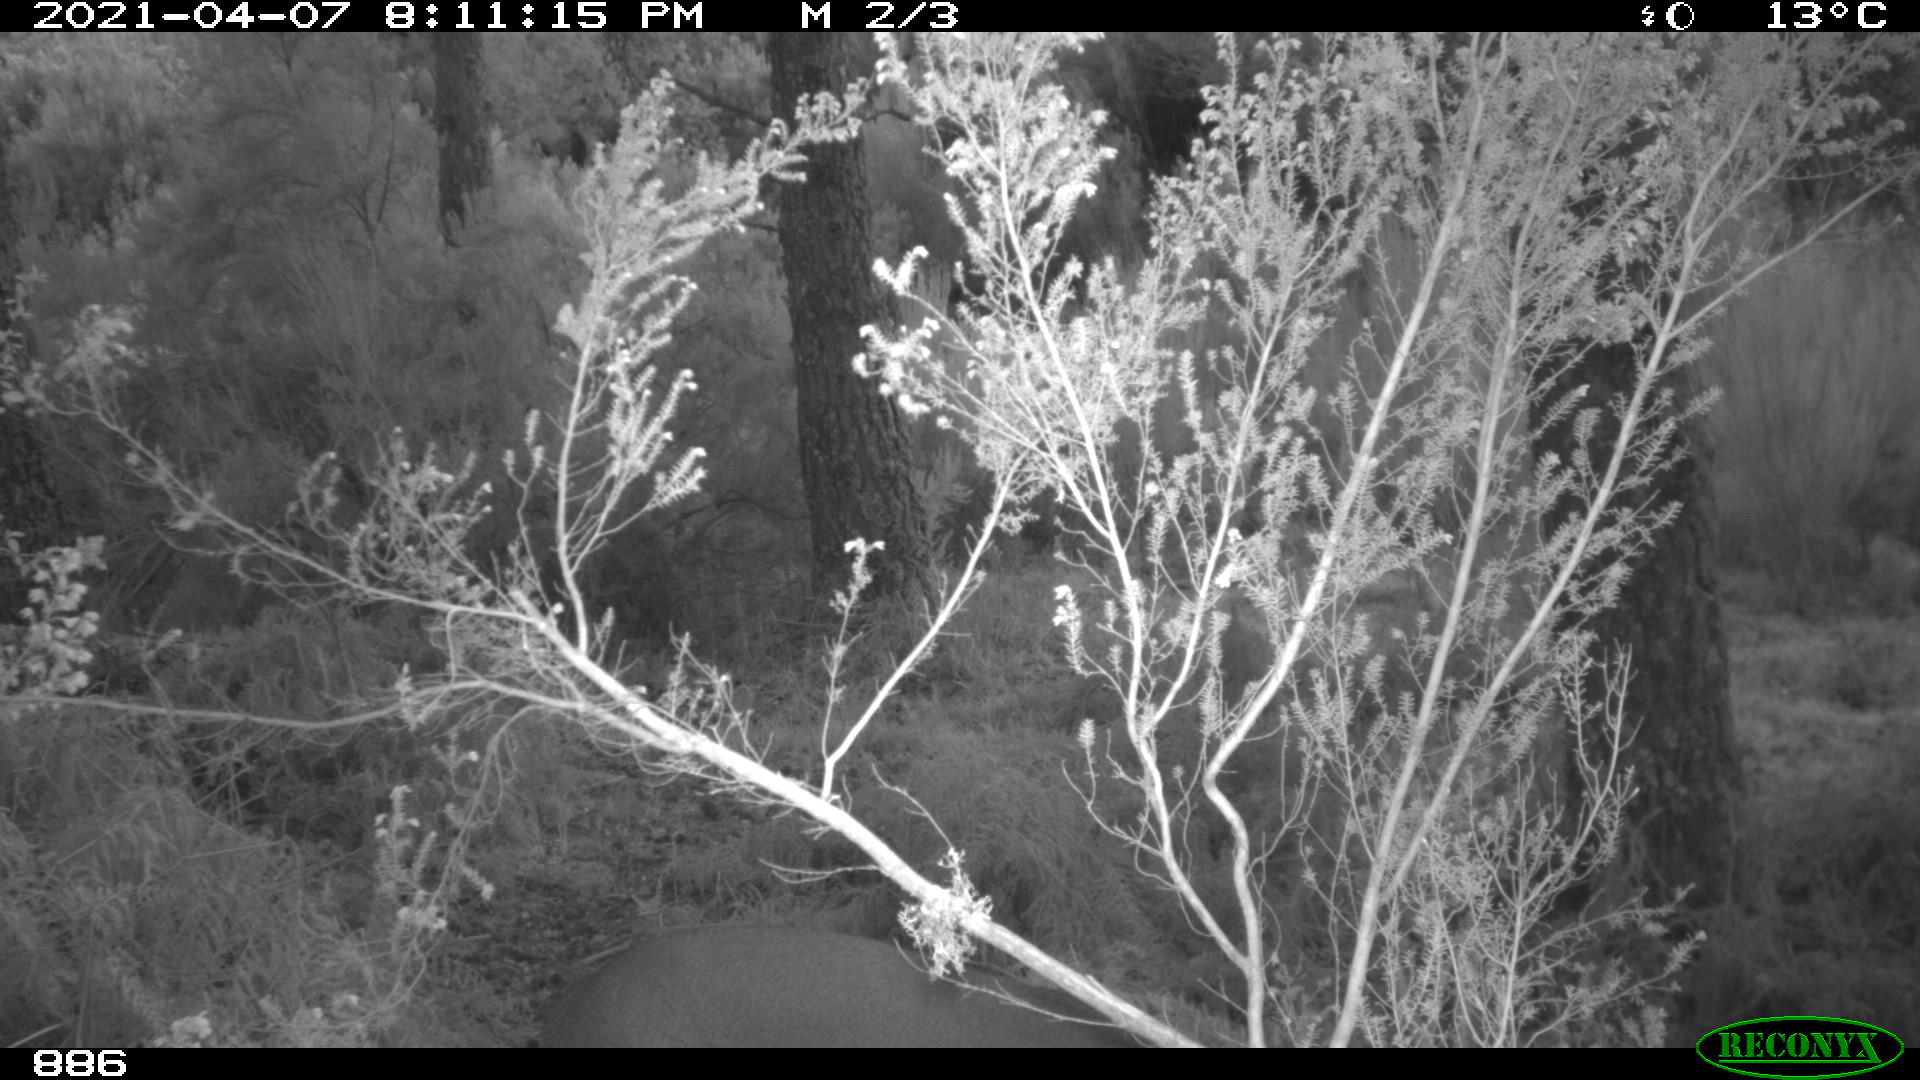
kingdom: Animalia
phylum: Chordata
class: Mammalia
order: Artiodactyla
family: Cervidae
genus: Capreolus
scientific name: Capreolus capreolus
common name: Western roe deer
